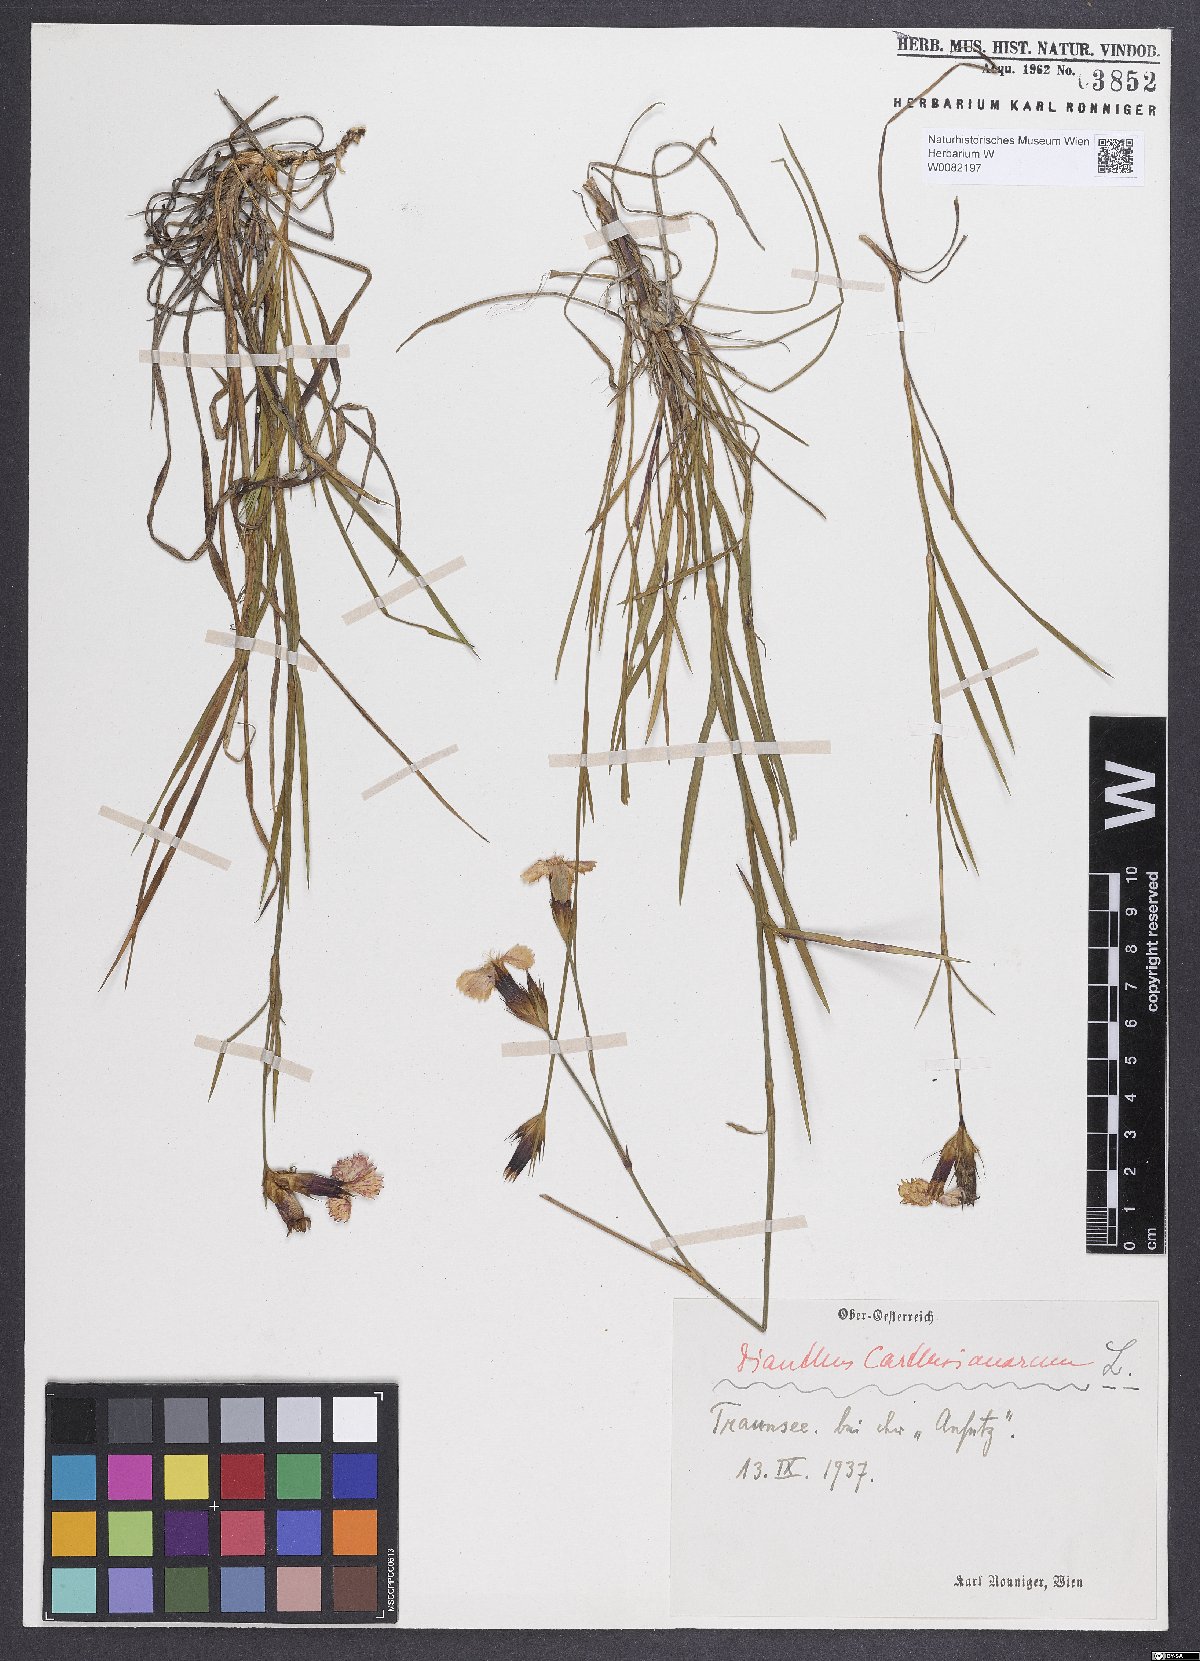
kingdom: Plantae
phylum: Tracheophyta
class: Magnoliopsida
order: Caryophyllales
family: Caryophyllaceae
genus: Dianthus
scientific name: Dianthus carthusianorum
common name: Carthusian pink
